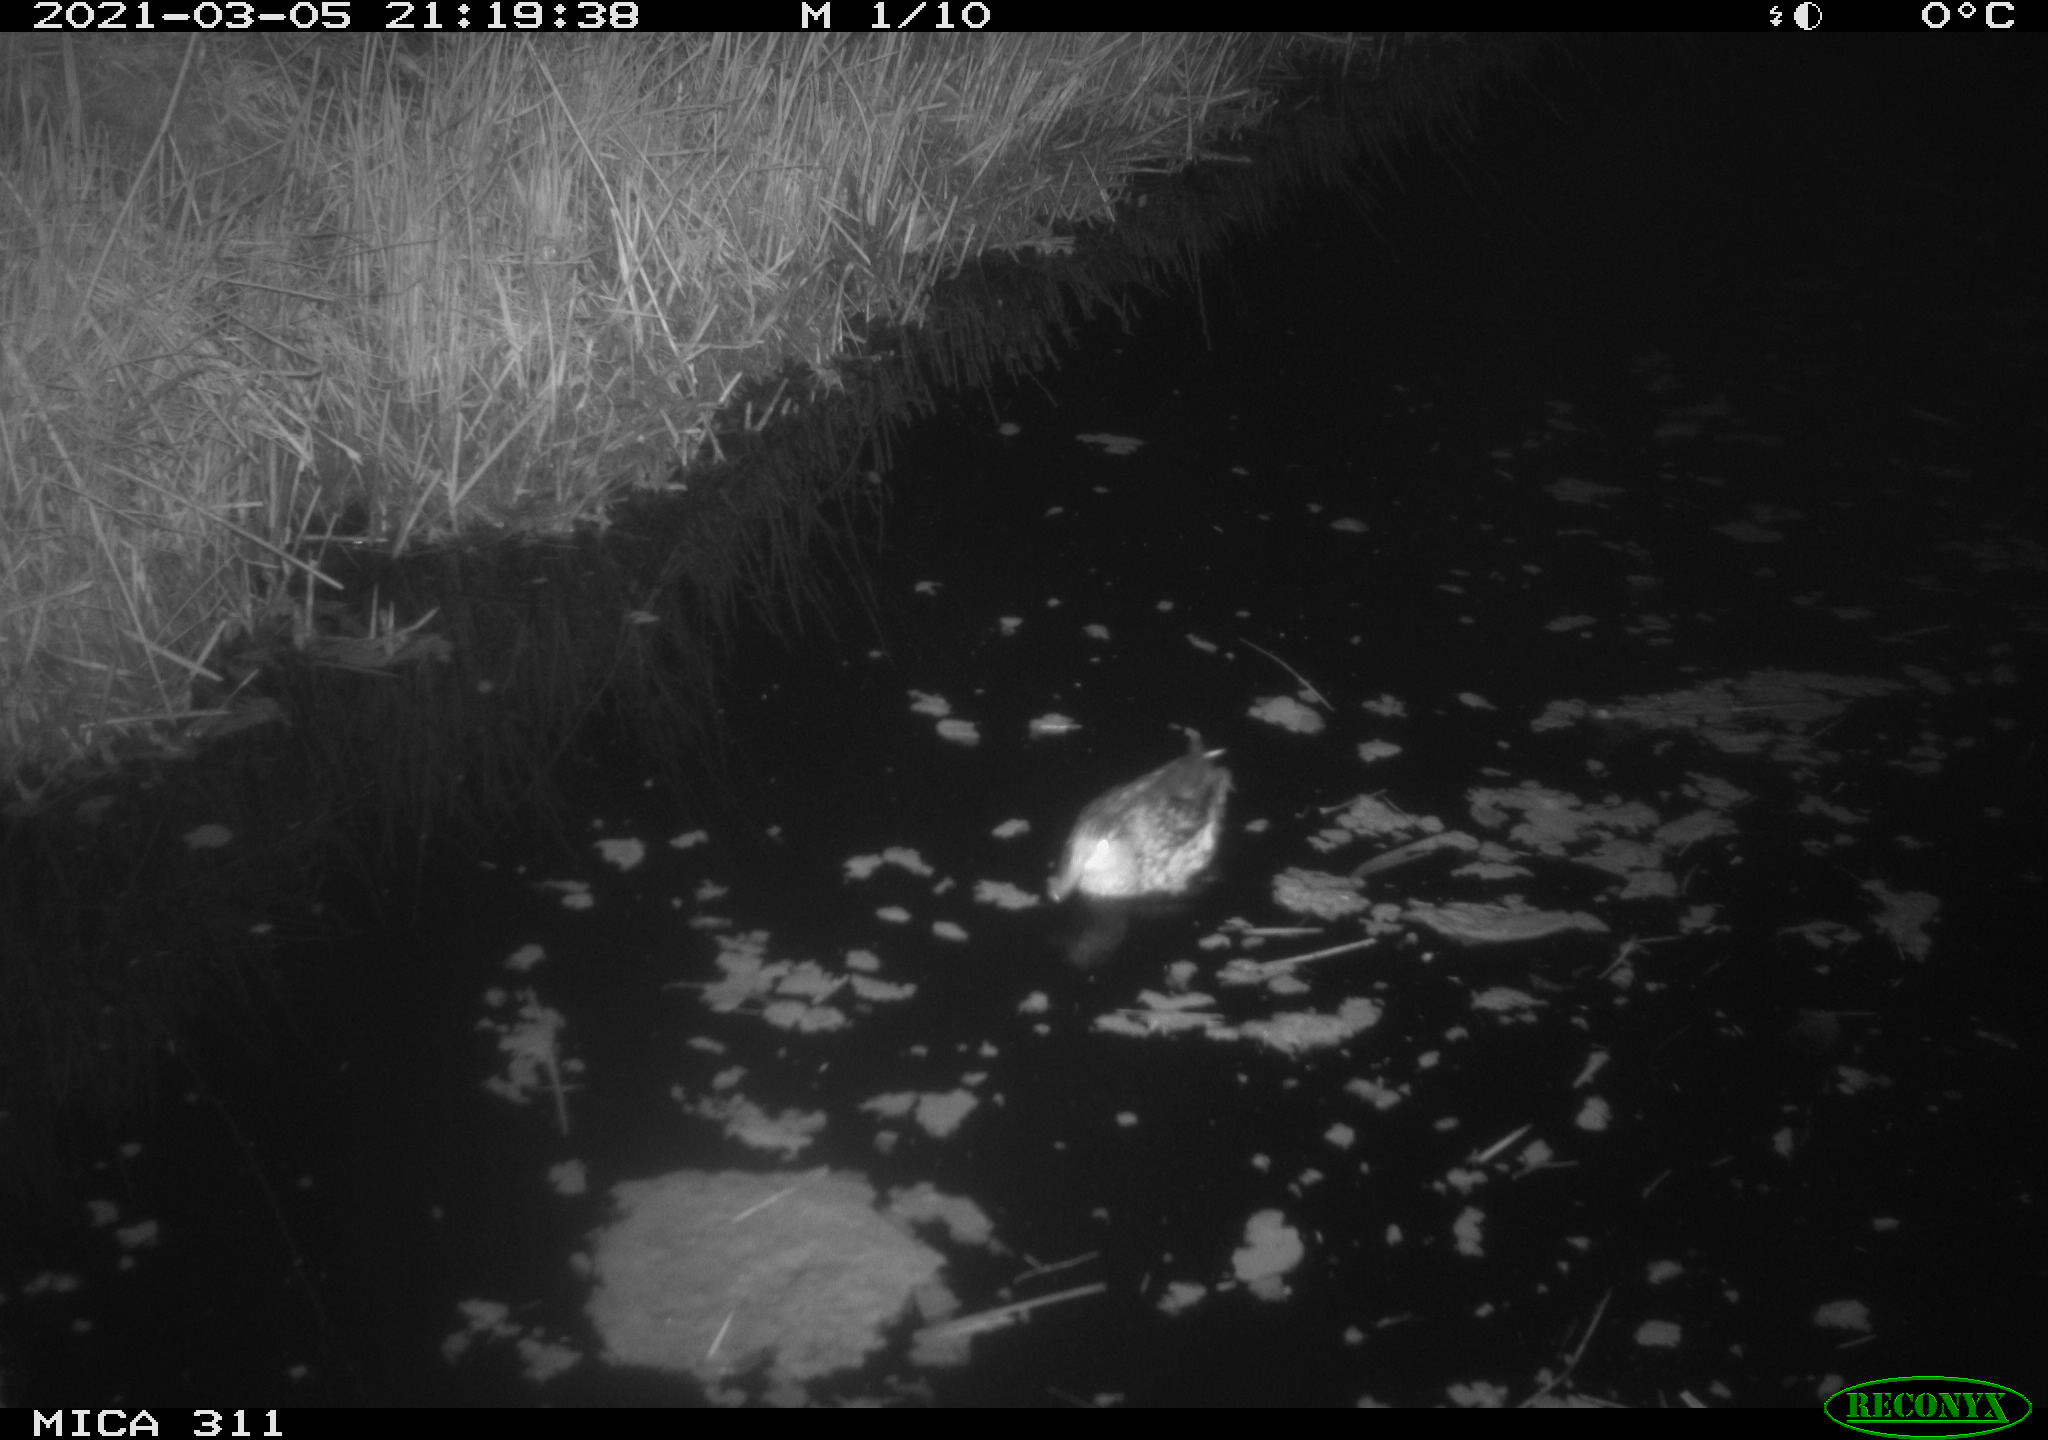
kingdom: Animalia
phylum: Chordata
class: Aves
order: Anseriformes
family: Anatidae
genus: Anas
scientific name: Anas crecca
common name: Eurasian teal
